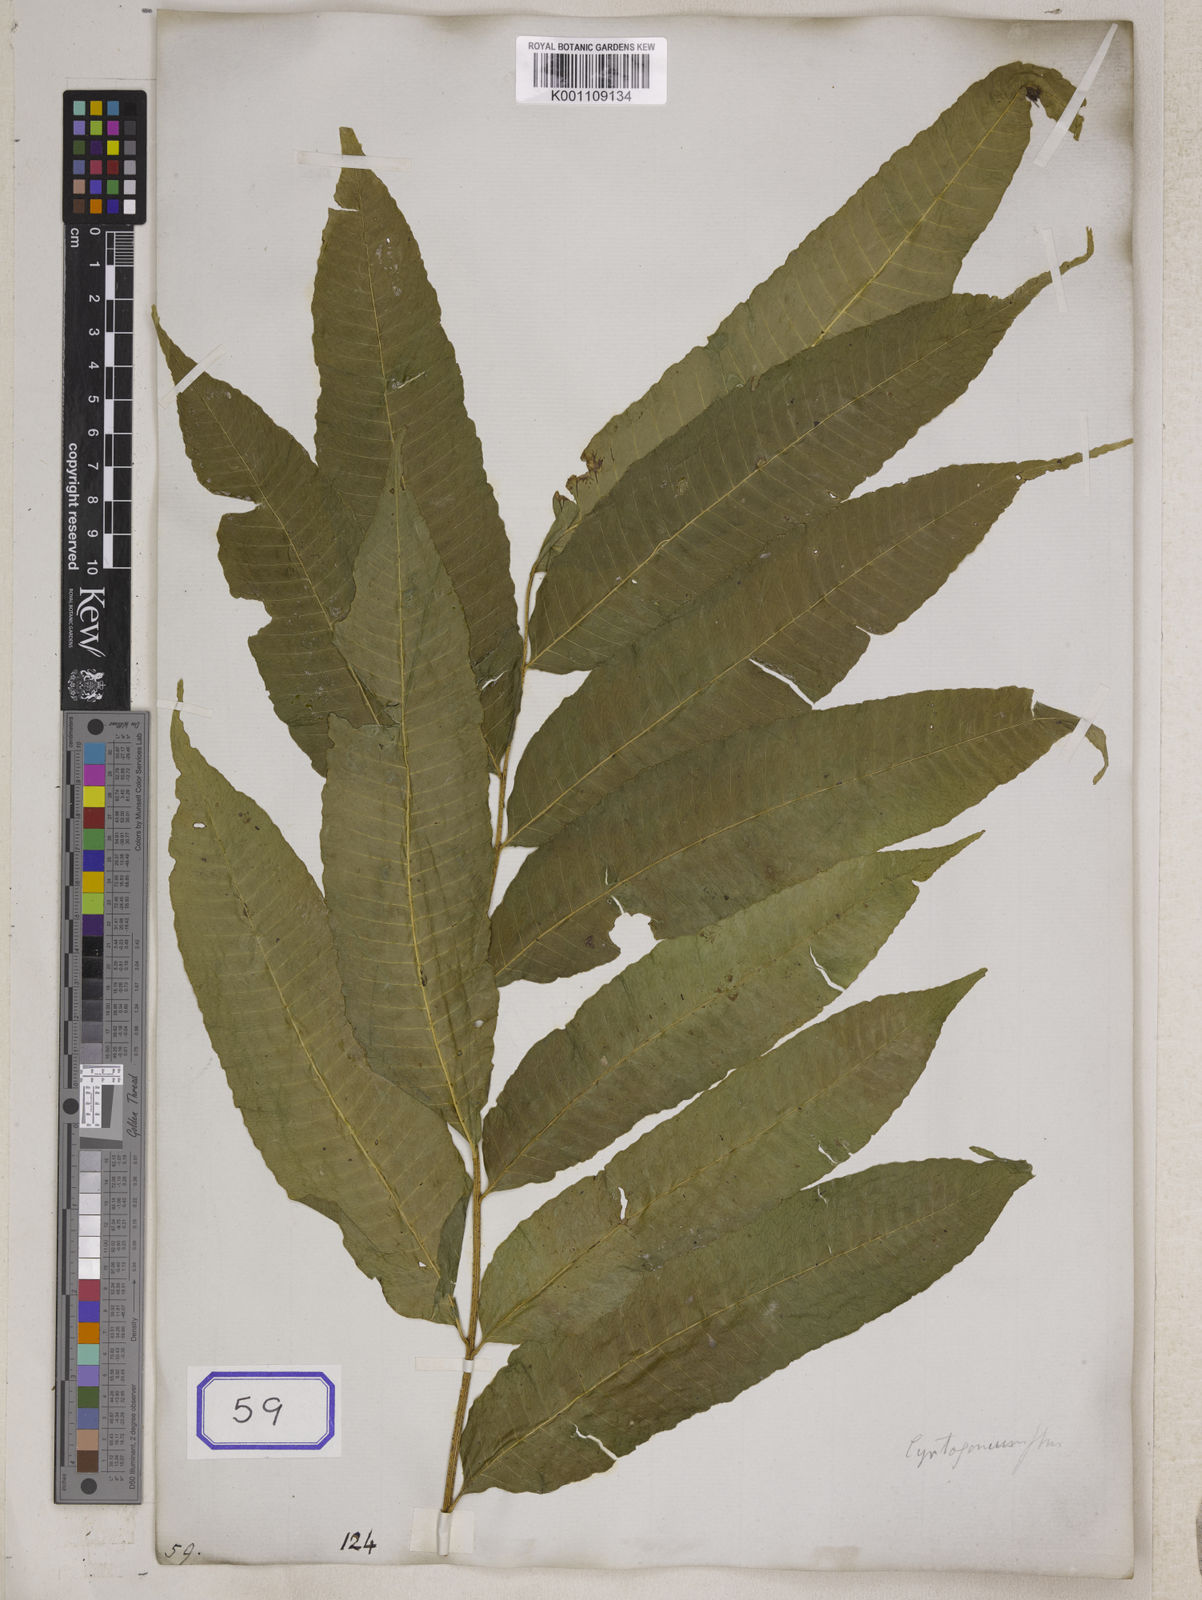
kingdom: Plantae
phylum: Tracheophyta
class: Polypodiopsida
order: Polypodiales
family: Dryopteridaceae
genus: Bolbitis
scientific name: Bolbitis deltigera
